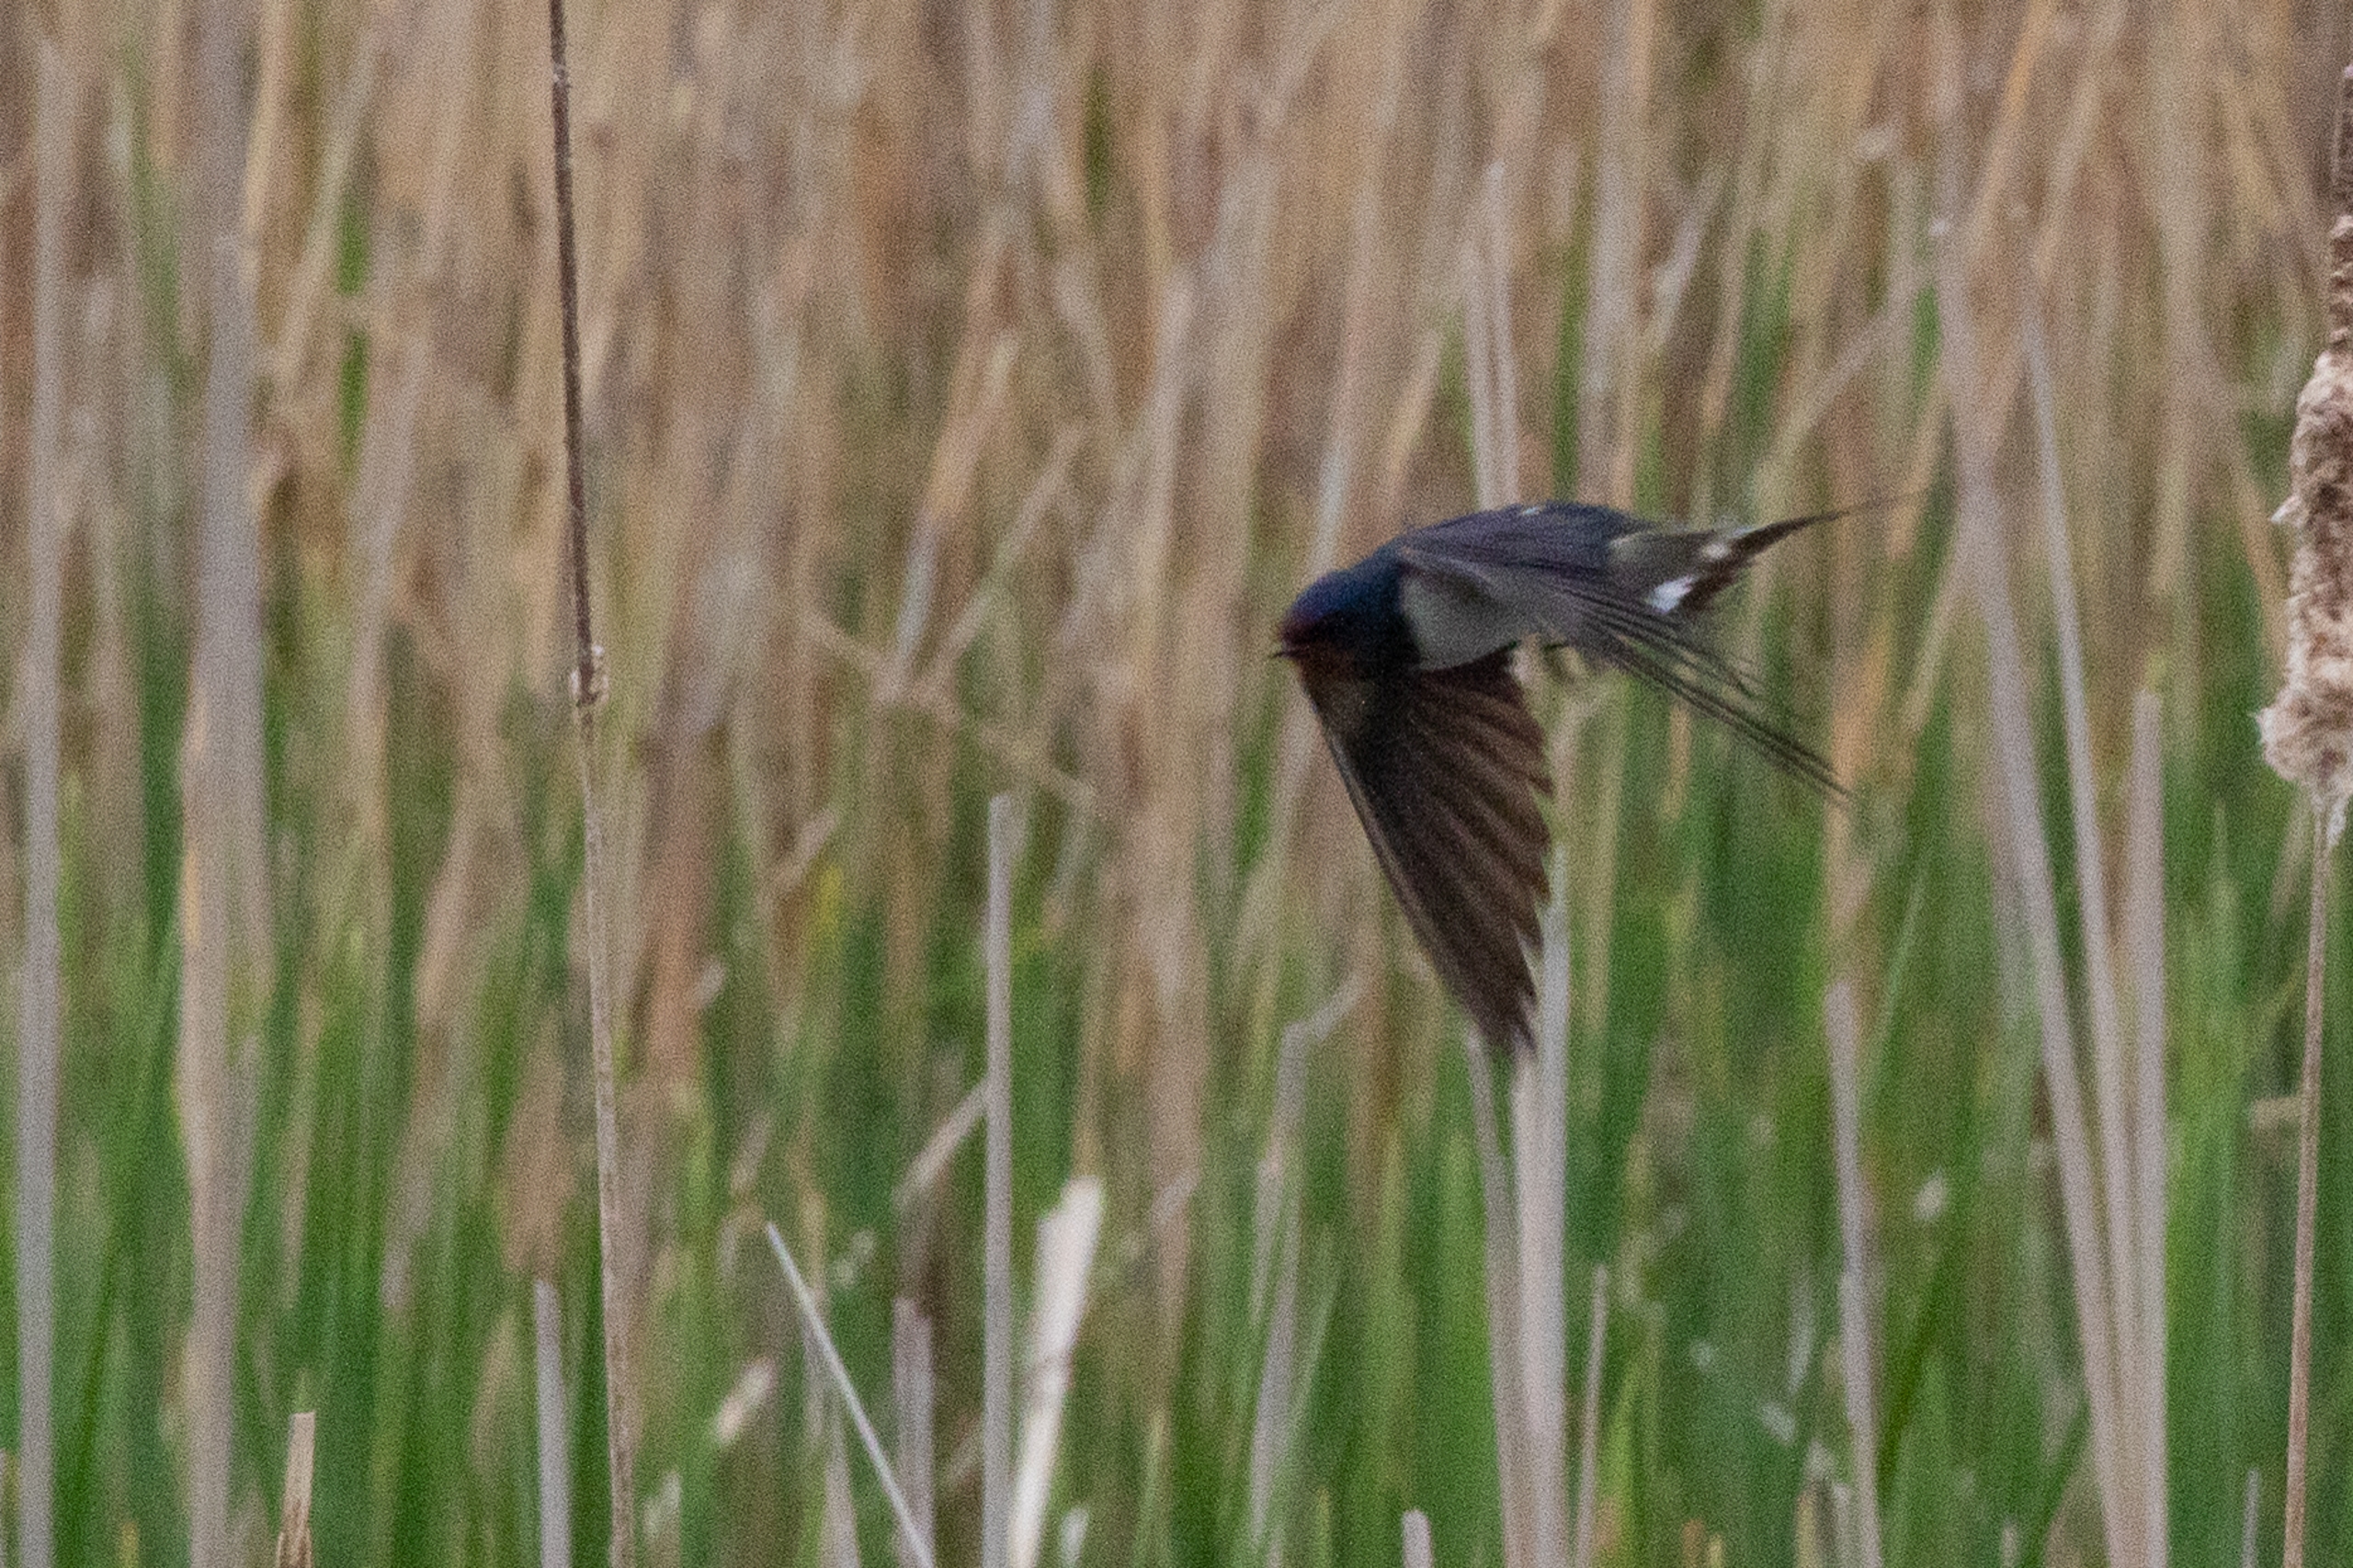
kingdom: Animalia
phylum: Chordata
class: Aves
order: Passeriformes
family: Hirundinidae
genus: Hirundo
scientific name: Hirundo rustica
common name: Landsvale
